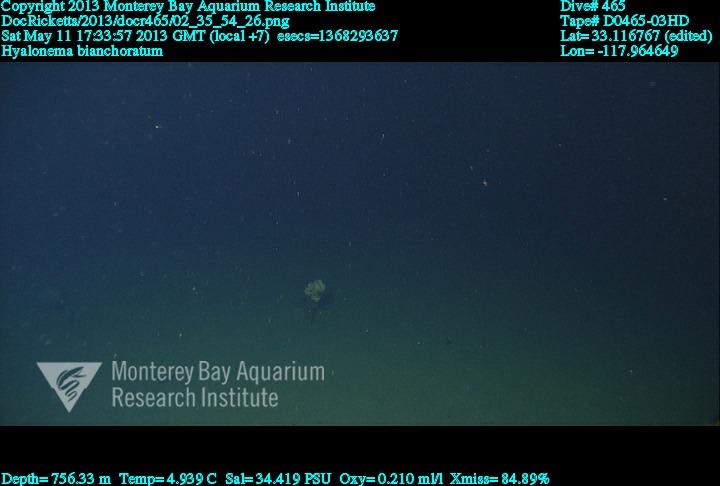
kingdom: Animalia
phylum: Porifera
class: Hexactinellida
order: Amphidiscosida
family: Hyalonematidae
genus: Hyalonema
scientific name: Hyalonema bianchoratum
